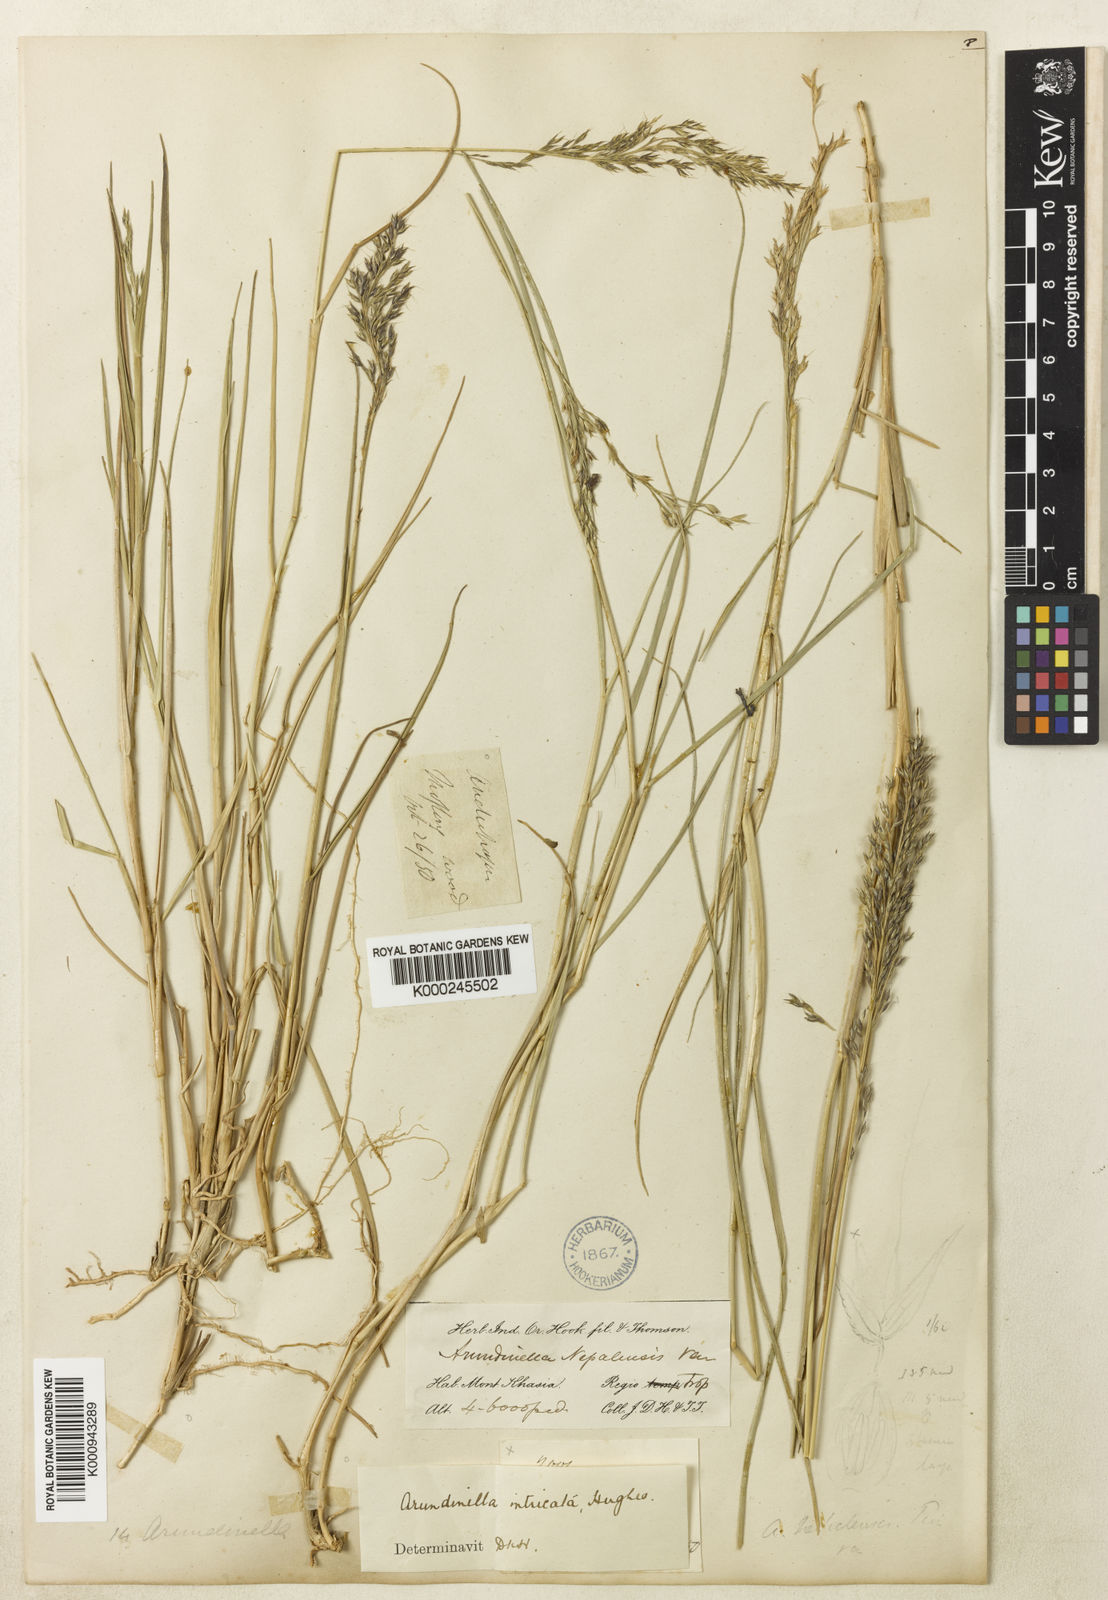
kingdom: Plantae
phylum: Tracheophyta
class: Liliopsida
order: Poales
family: Poaceae
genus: Arundinella
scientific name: Arundinella intricata
